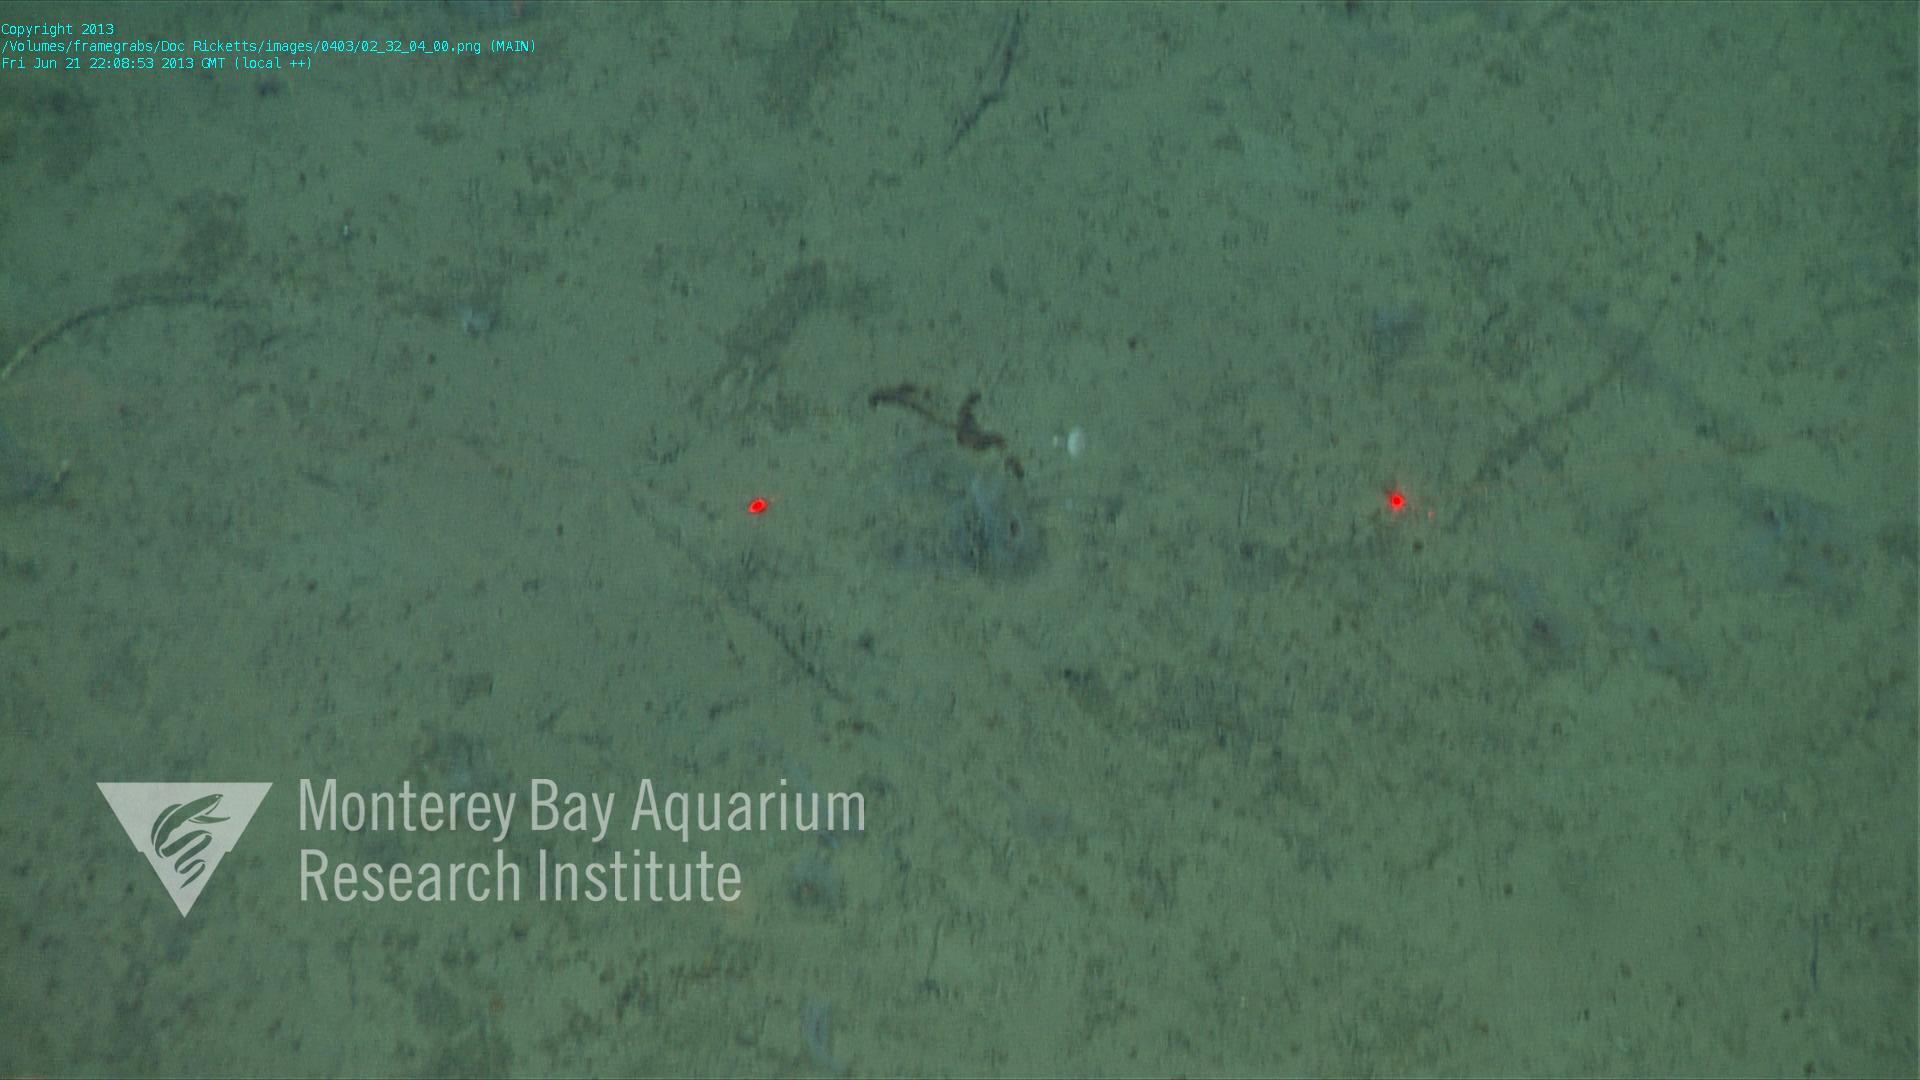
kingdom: Animalia
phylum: Porifera
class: Demospongiae
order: Poecilosclerida
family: Cladorhizidae
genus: Cladorhiza
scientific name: Cladorhiza
